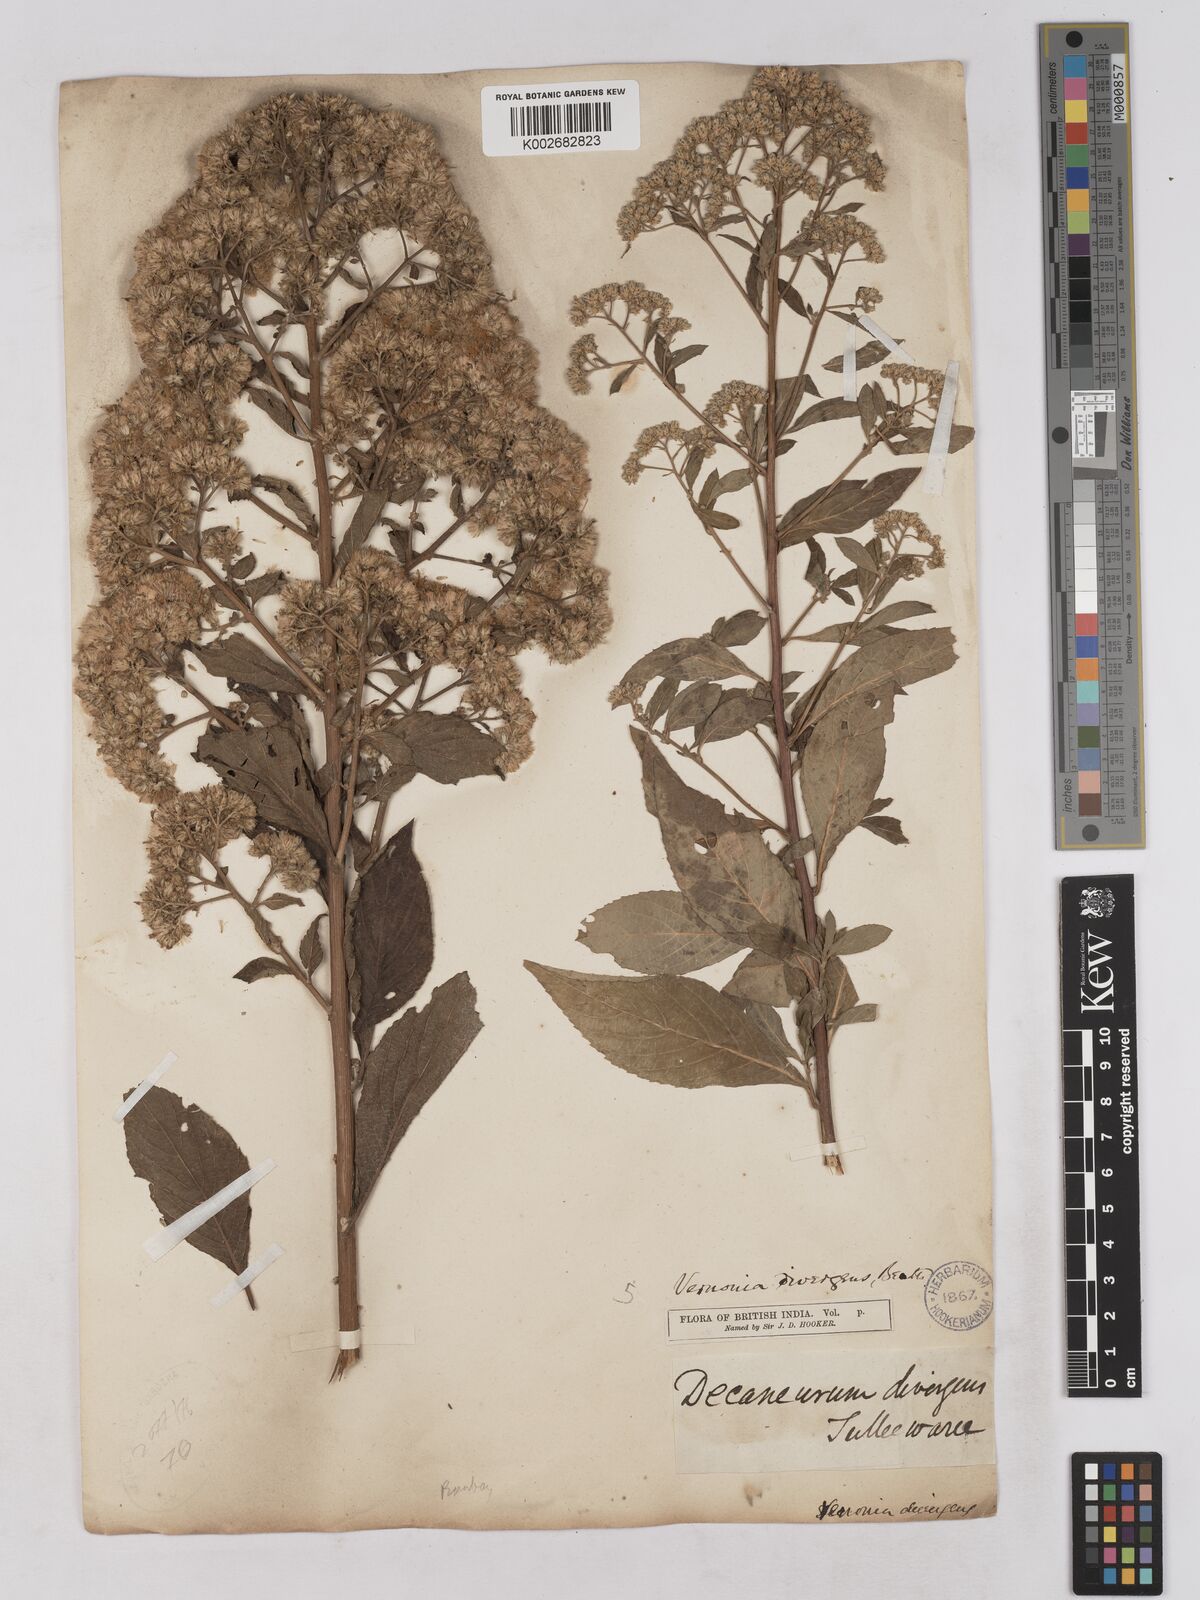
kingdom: Plantae
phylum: Tracheophyta
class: Magnoliopsida
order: Asterales
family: Asteraceae
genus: Acilepis
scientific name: Acilepis divergens
